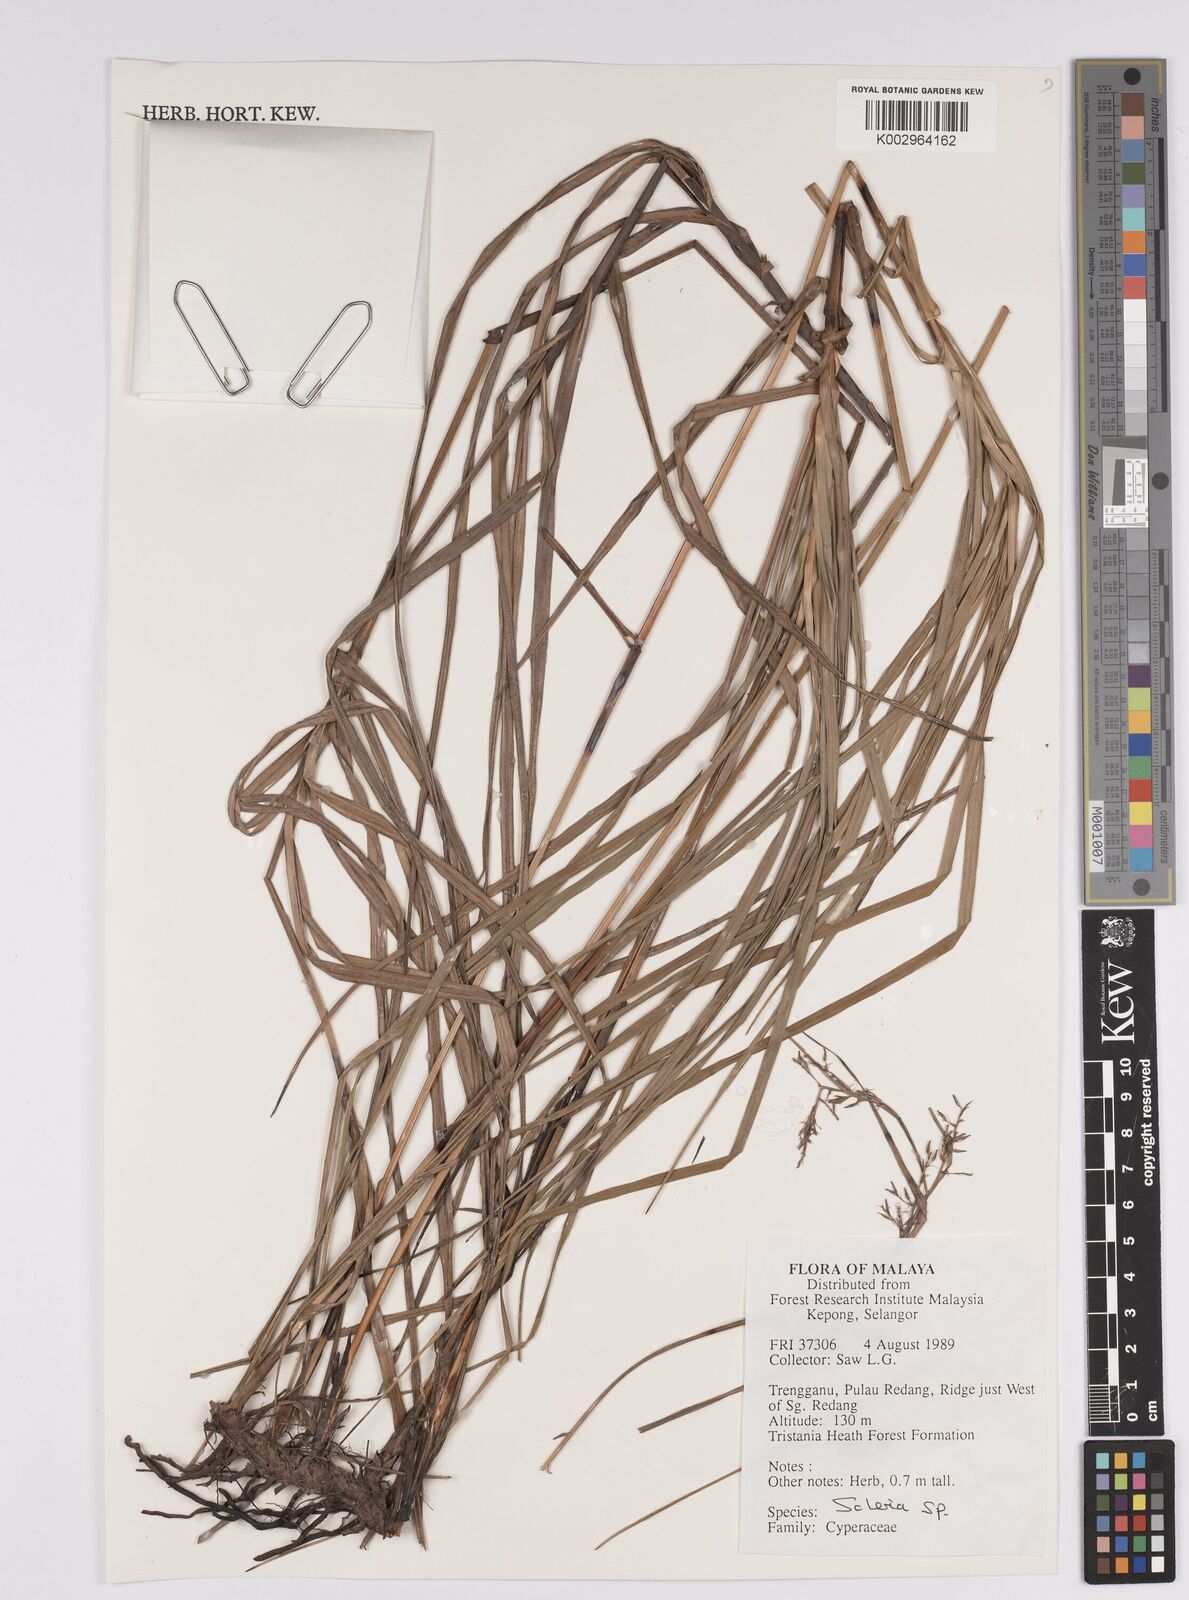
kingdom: Plantae
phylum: Tracheophyta
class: Liliopsida
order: Poales
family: Cyperaceae
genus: Scleria
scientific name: Scleria
